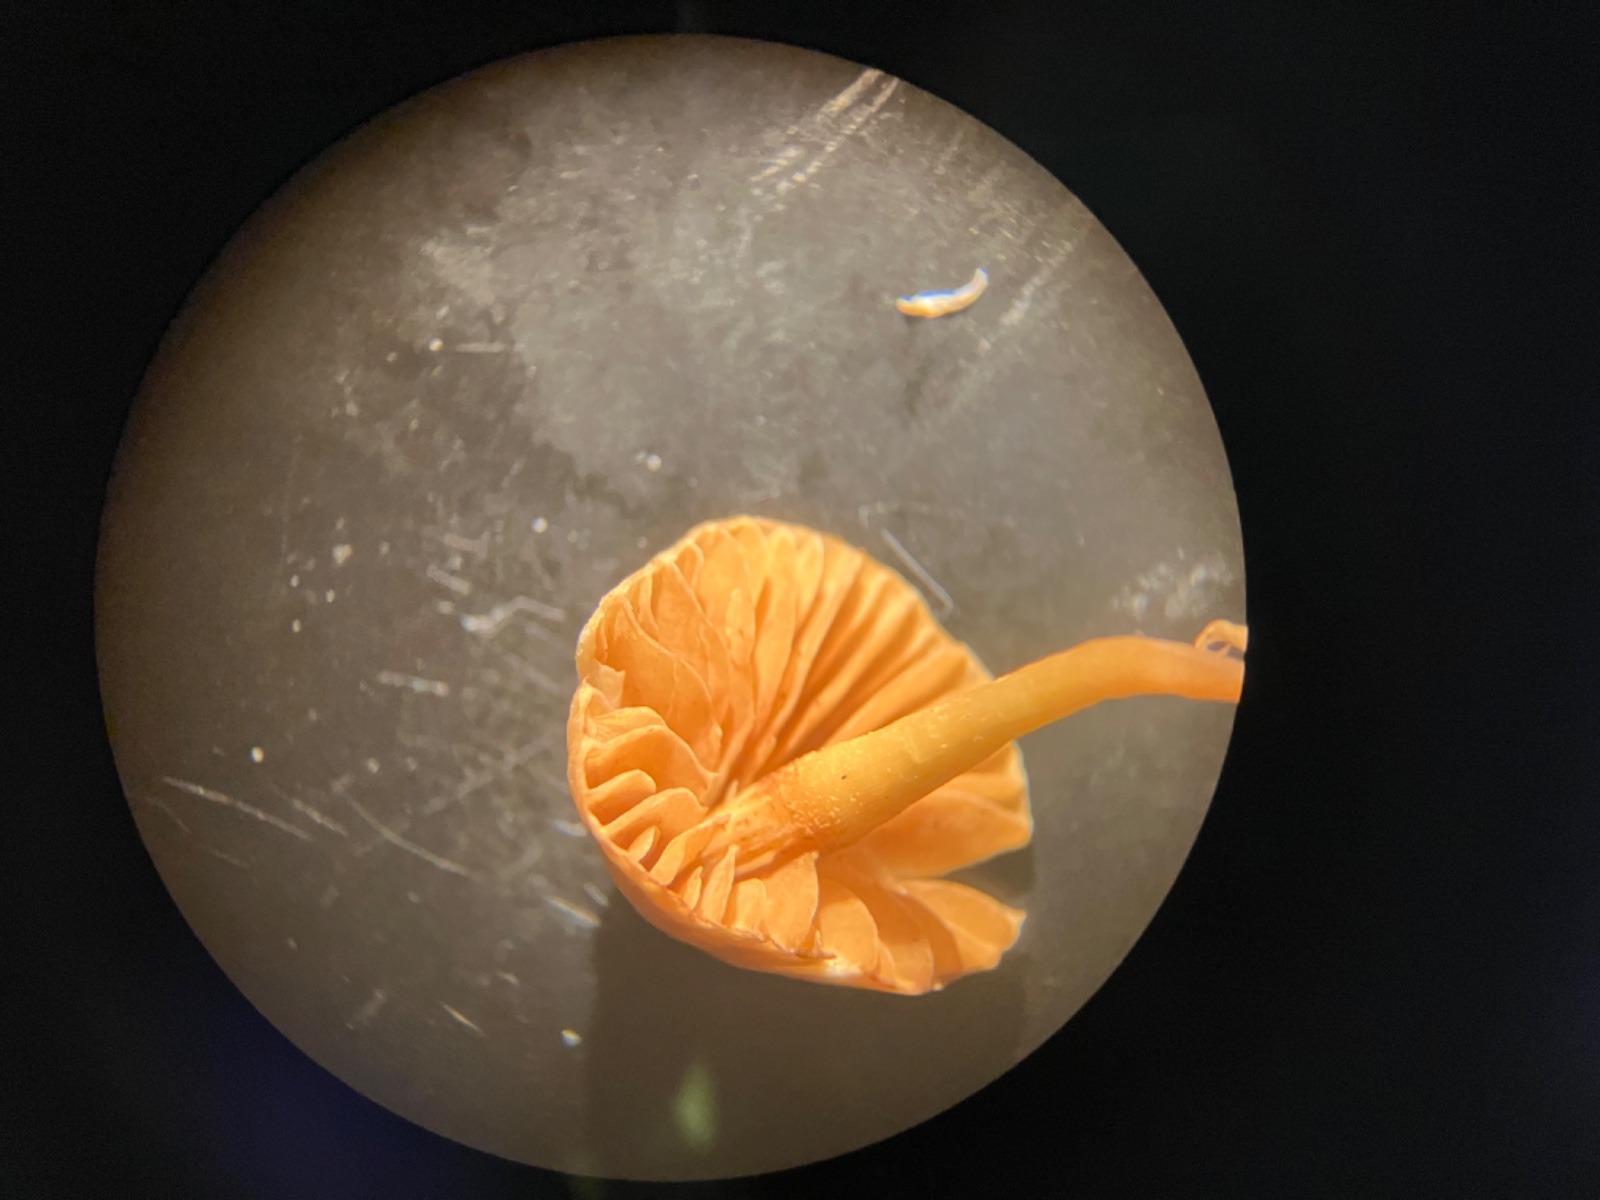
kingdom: Fungi
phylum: Basidiomycota
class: Agaricomycetes
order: Agaricales
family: Hymenogastraceae
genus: Galerina
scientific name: Galerina
